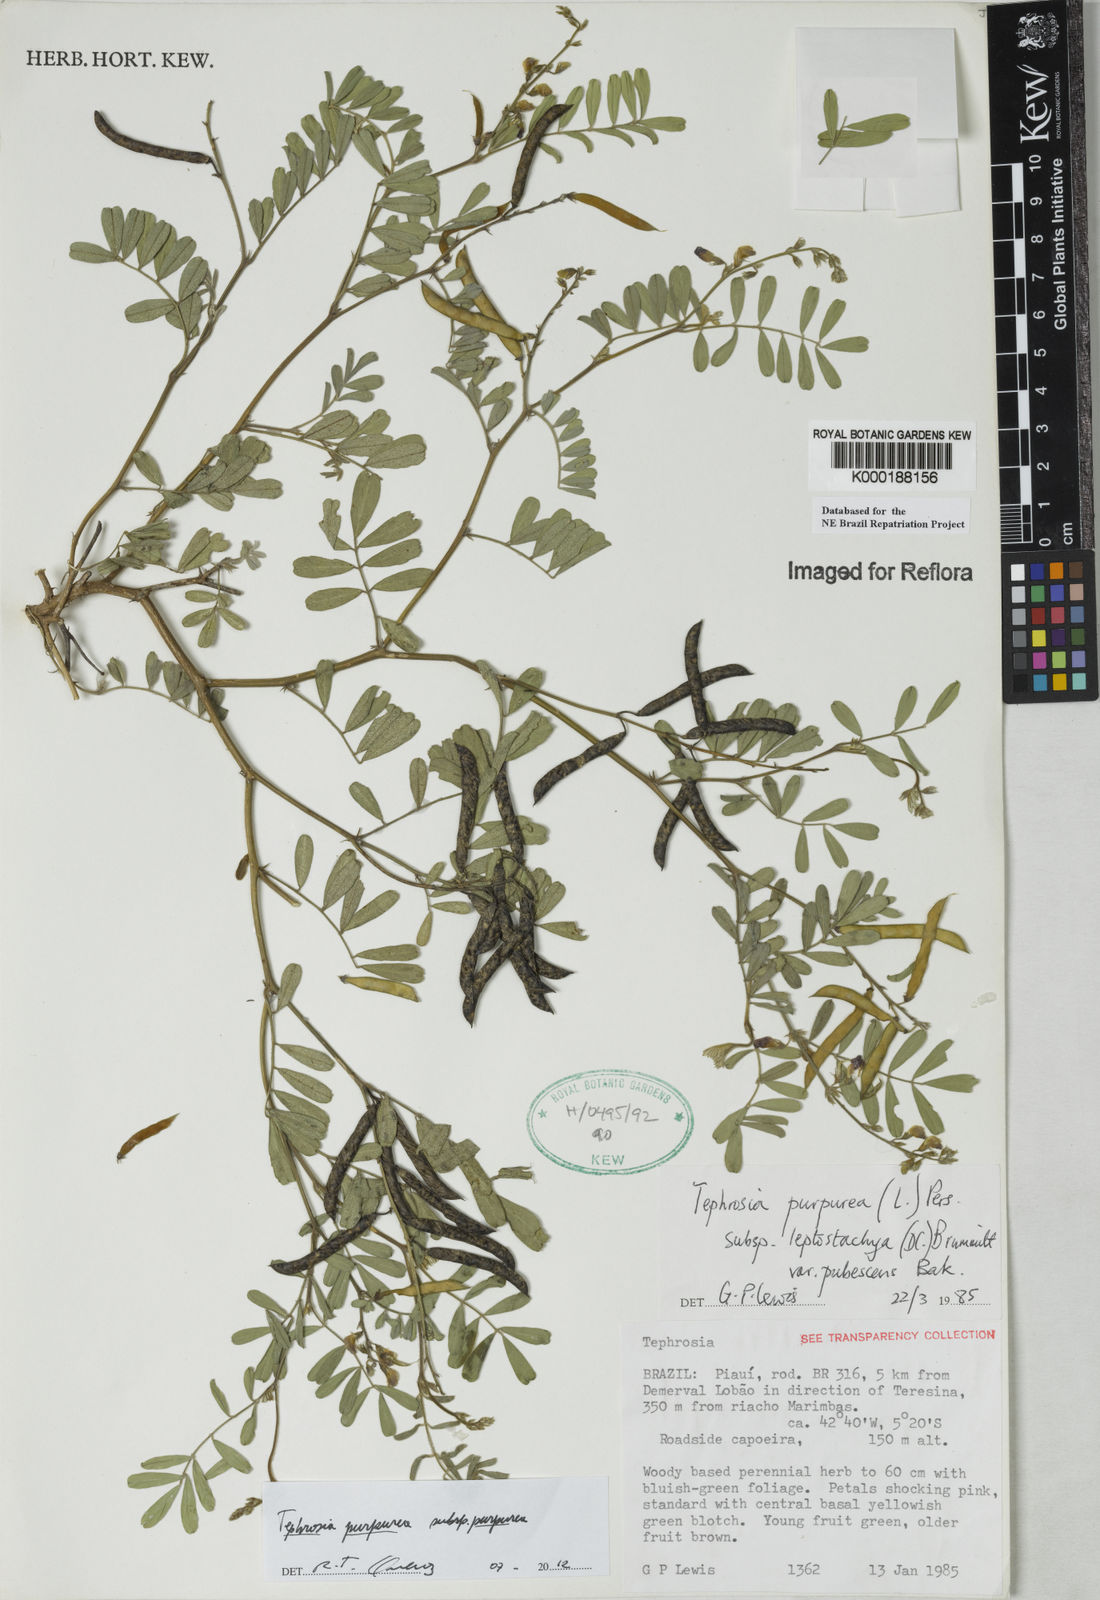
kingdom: Plantae
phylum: Tracheophyta
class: Magnoliopsida
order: Fabales
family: Fabaceae
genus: Tephrosia
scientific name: Tephrosia purpurea
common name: Fishpoison
